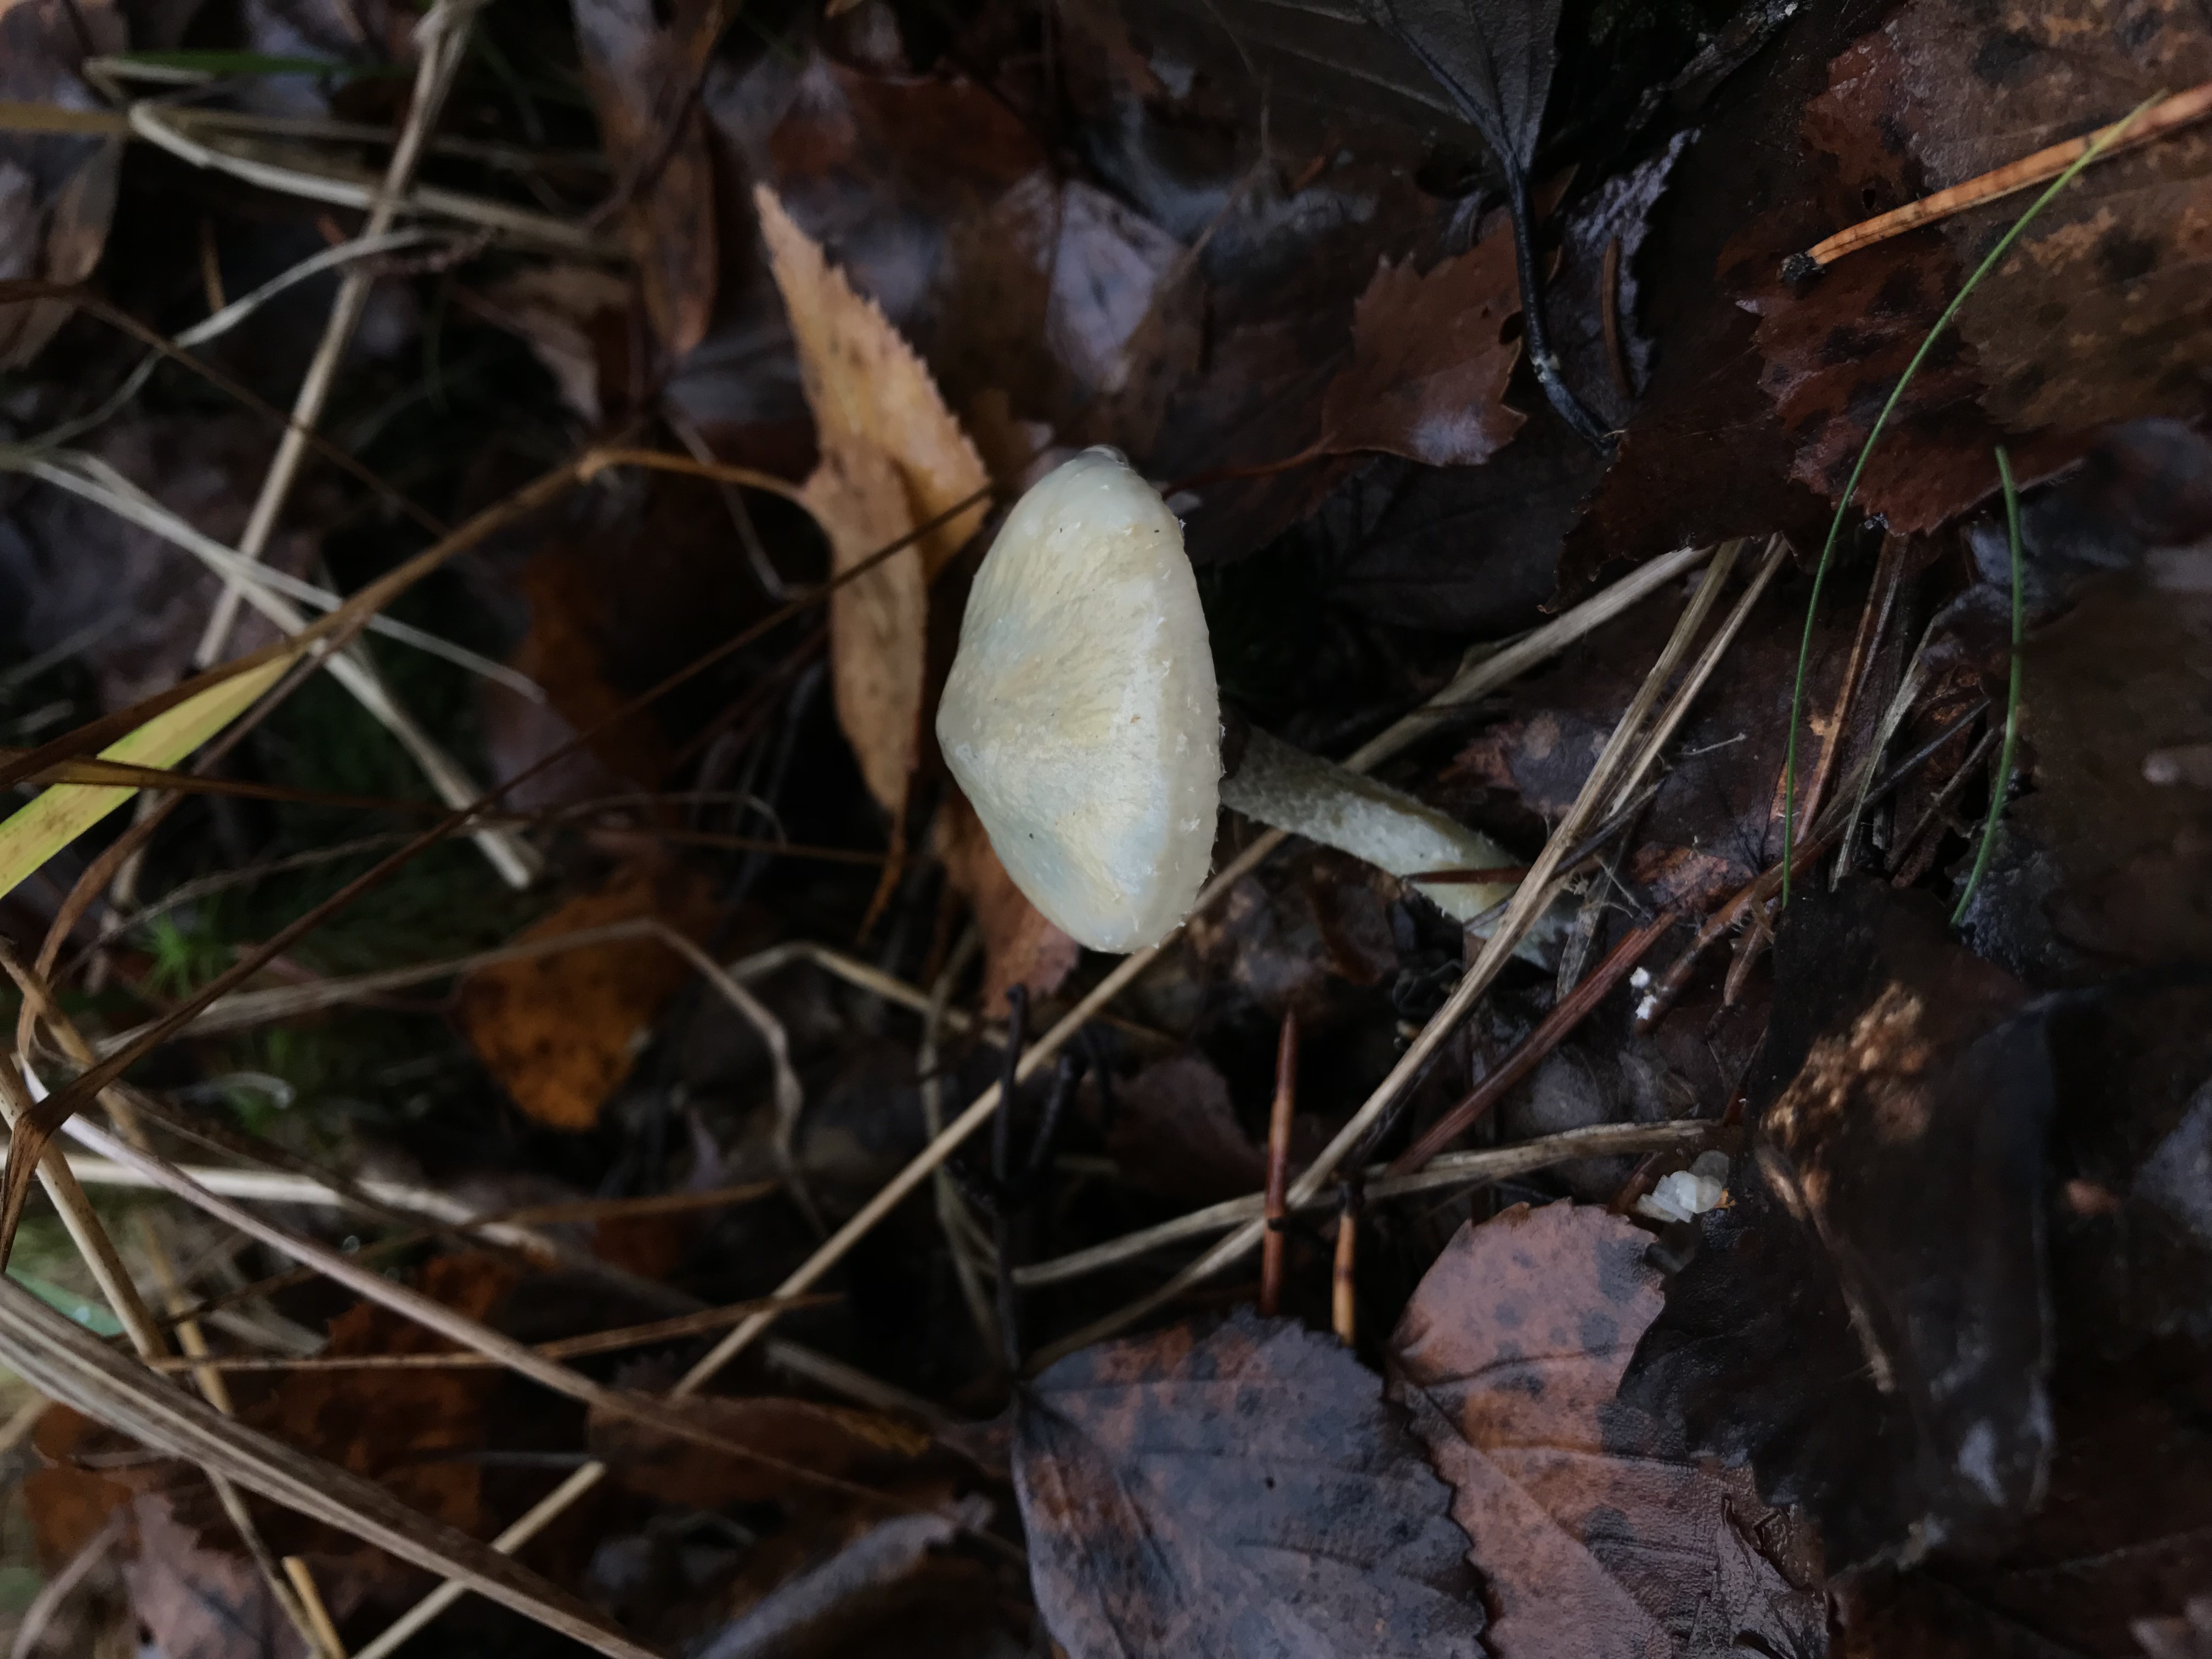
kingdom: Fungi
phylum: Basidiomycota
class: Agaricomycetes
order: Agaricales
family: Strophariaceae
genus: Stropharia
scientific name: Stropharia aeruginosa
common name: Verdigris roundhead
